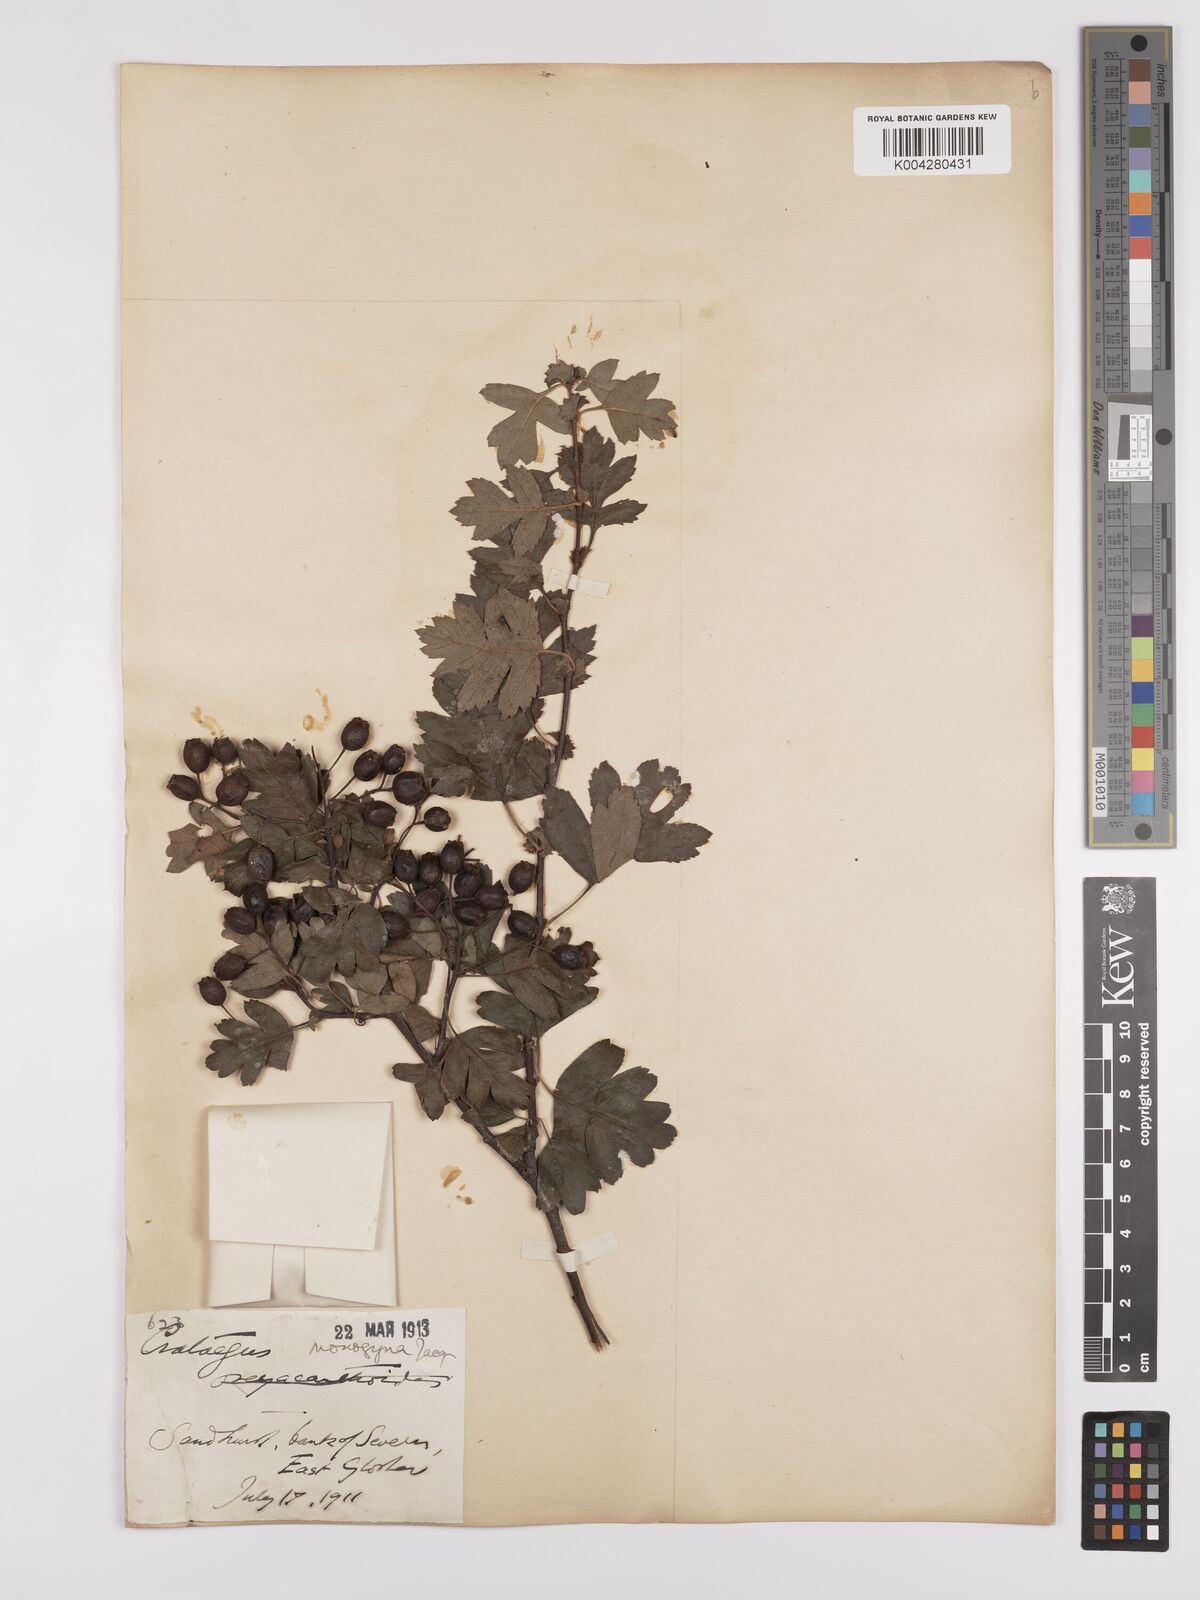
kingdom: Plantae
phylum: Tracheophyta
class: Magnoliopsida
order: Rosales
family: Rosaceae
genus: Crataegus
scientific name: Crataegus monogyna
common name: Hawthorn
